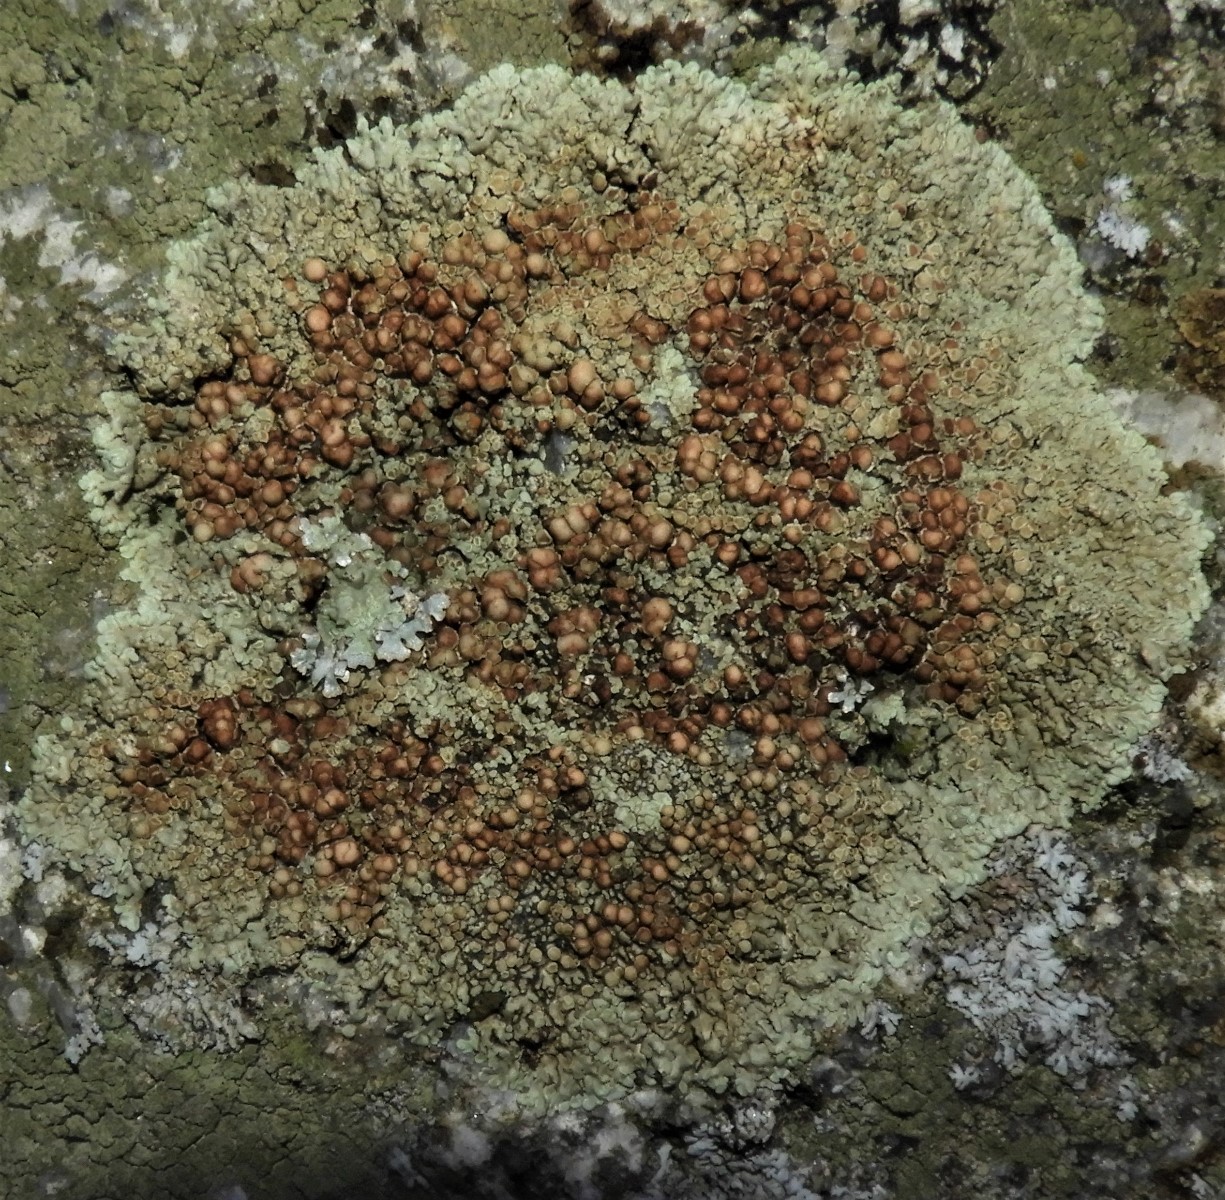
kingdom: Fungi
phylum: Ascomycota
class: Lecanoromycetes
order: Lecanorales
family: Lecanoraceae
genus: Protoparmeliopsis
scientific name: Protoparmeliopsis muralis
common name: randfliget kantskivelav
